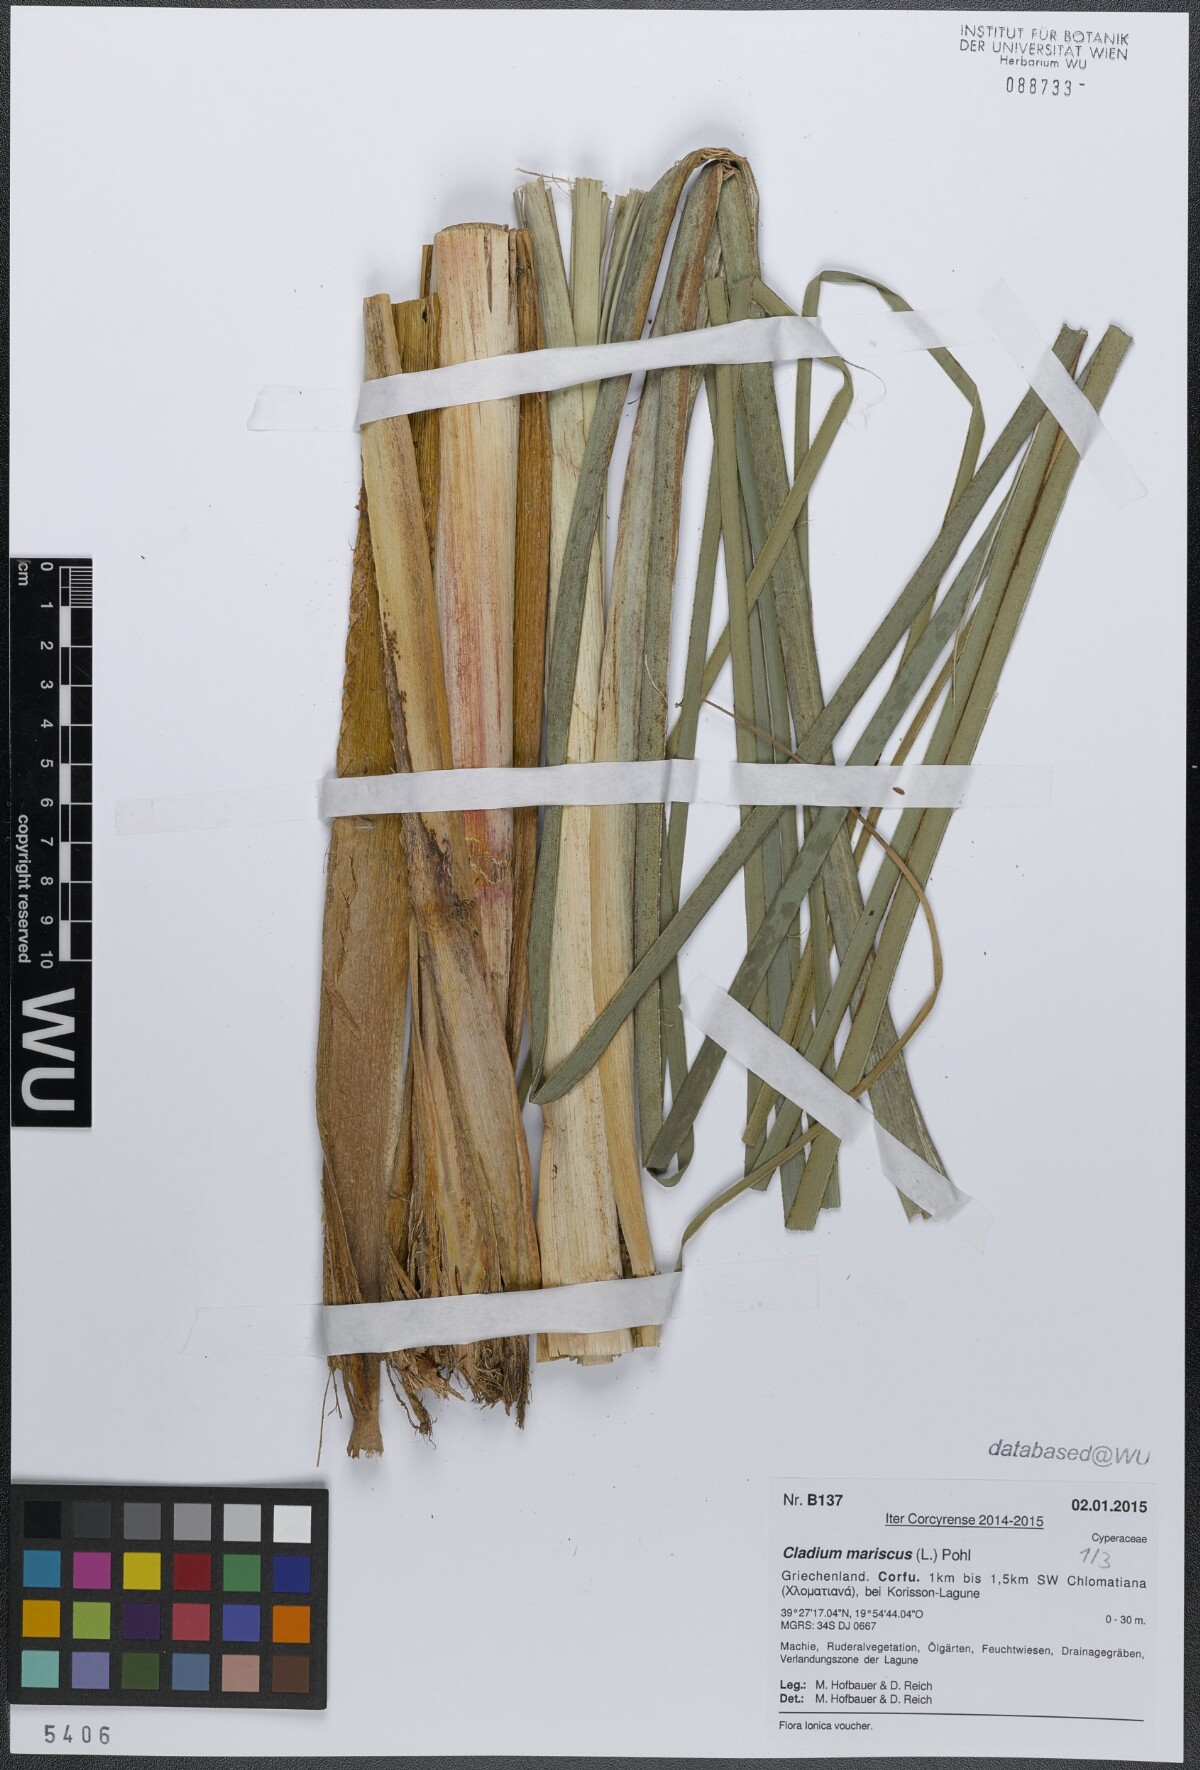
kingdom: Plantae
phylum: Tracheophyta
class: Liliopsida
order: Poales
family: Cyperaceae
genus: Cladium
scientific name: Cladium mariscus
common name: Great fen-sedge
